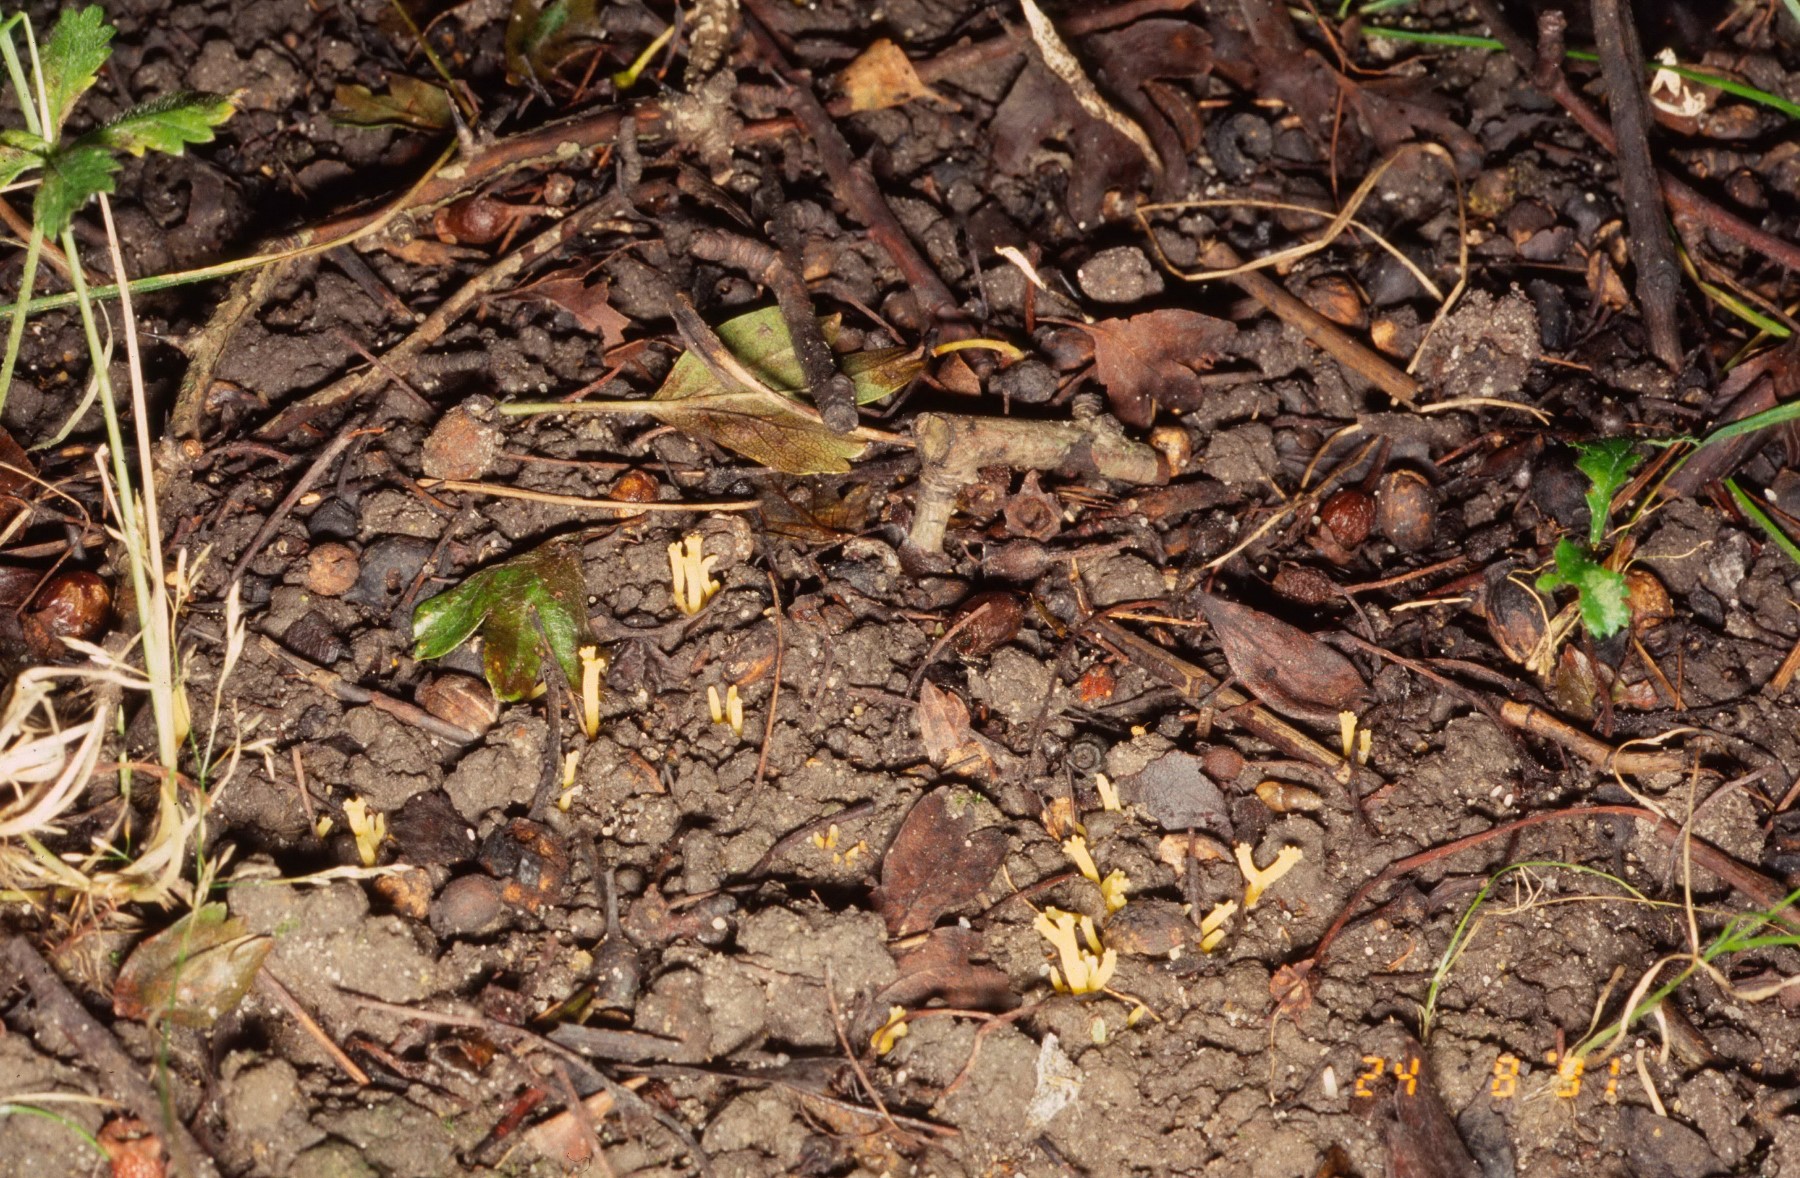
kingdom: Fungi
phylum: Basidiomycota
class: Agaricomycetes
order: Agaricales
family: Clavariaceae
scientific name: Clavariaceae
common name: køllesvampfamilien
